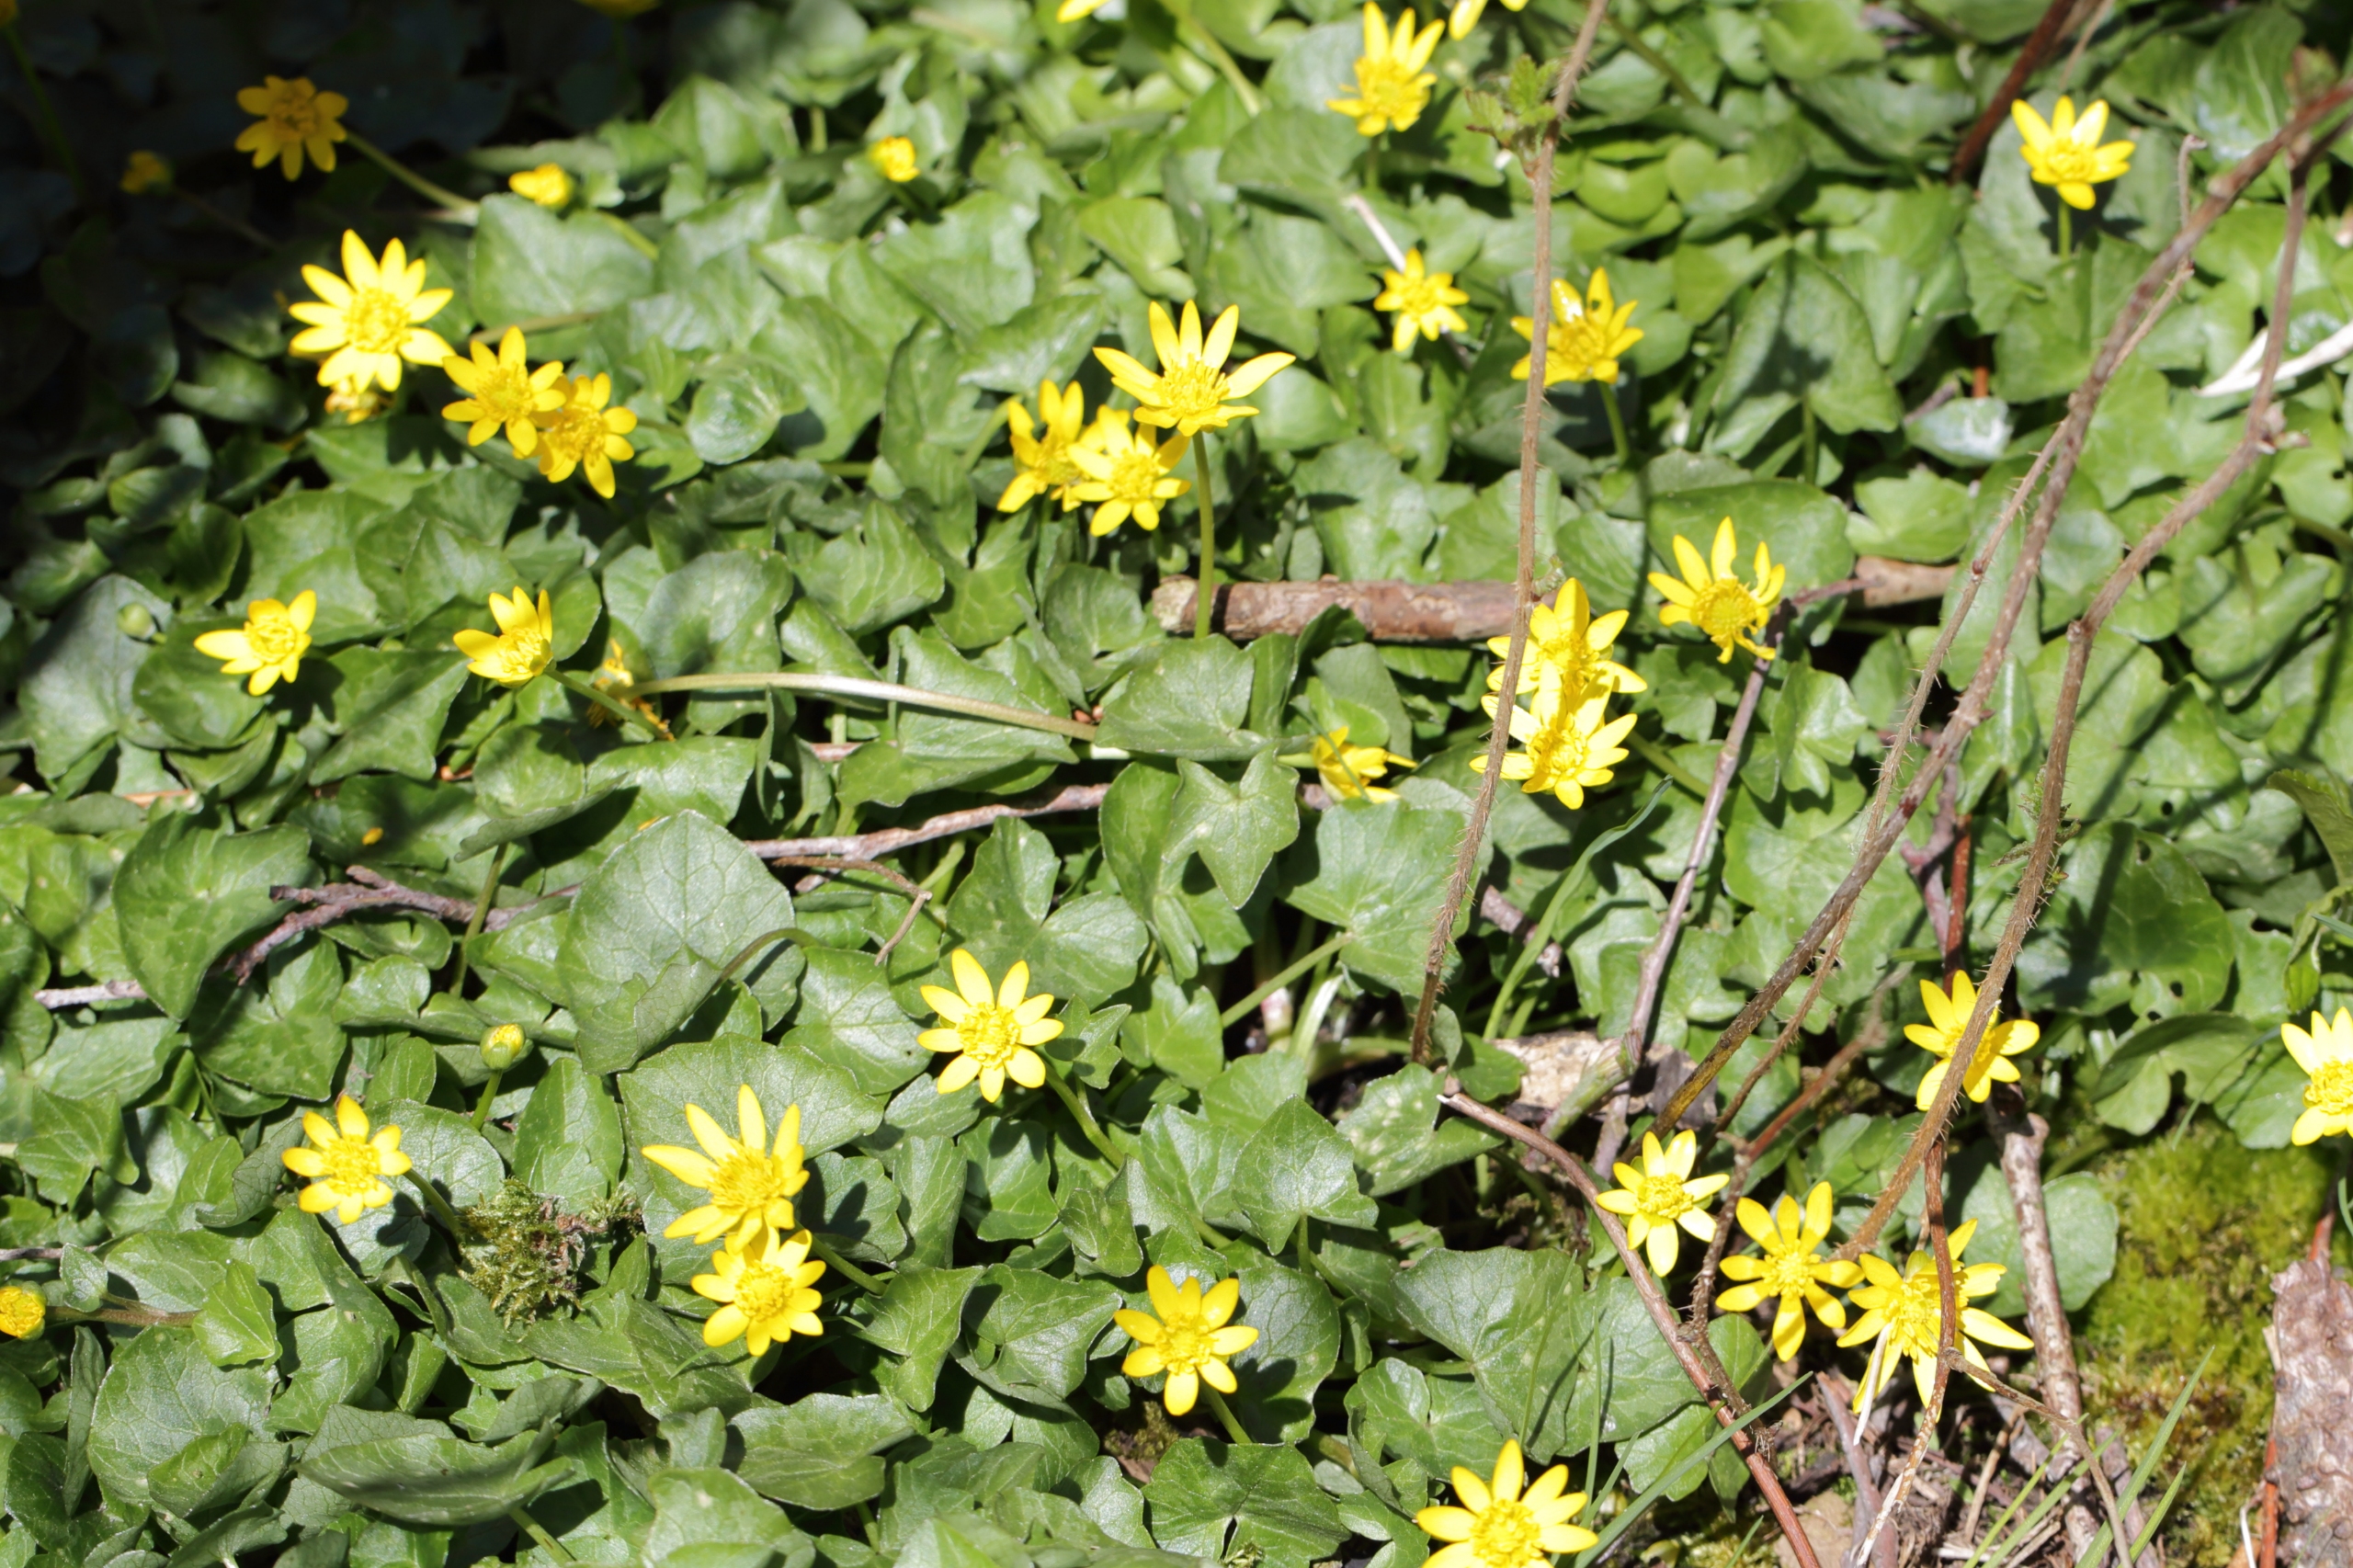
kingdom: Plantae
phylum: Tracheophyta
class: Magnoliopsida
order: Ranunculales
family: Ranunculaceae
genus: Ficaria
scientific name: Ficaria verna
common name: Vorterod
